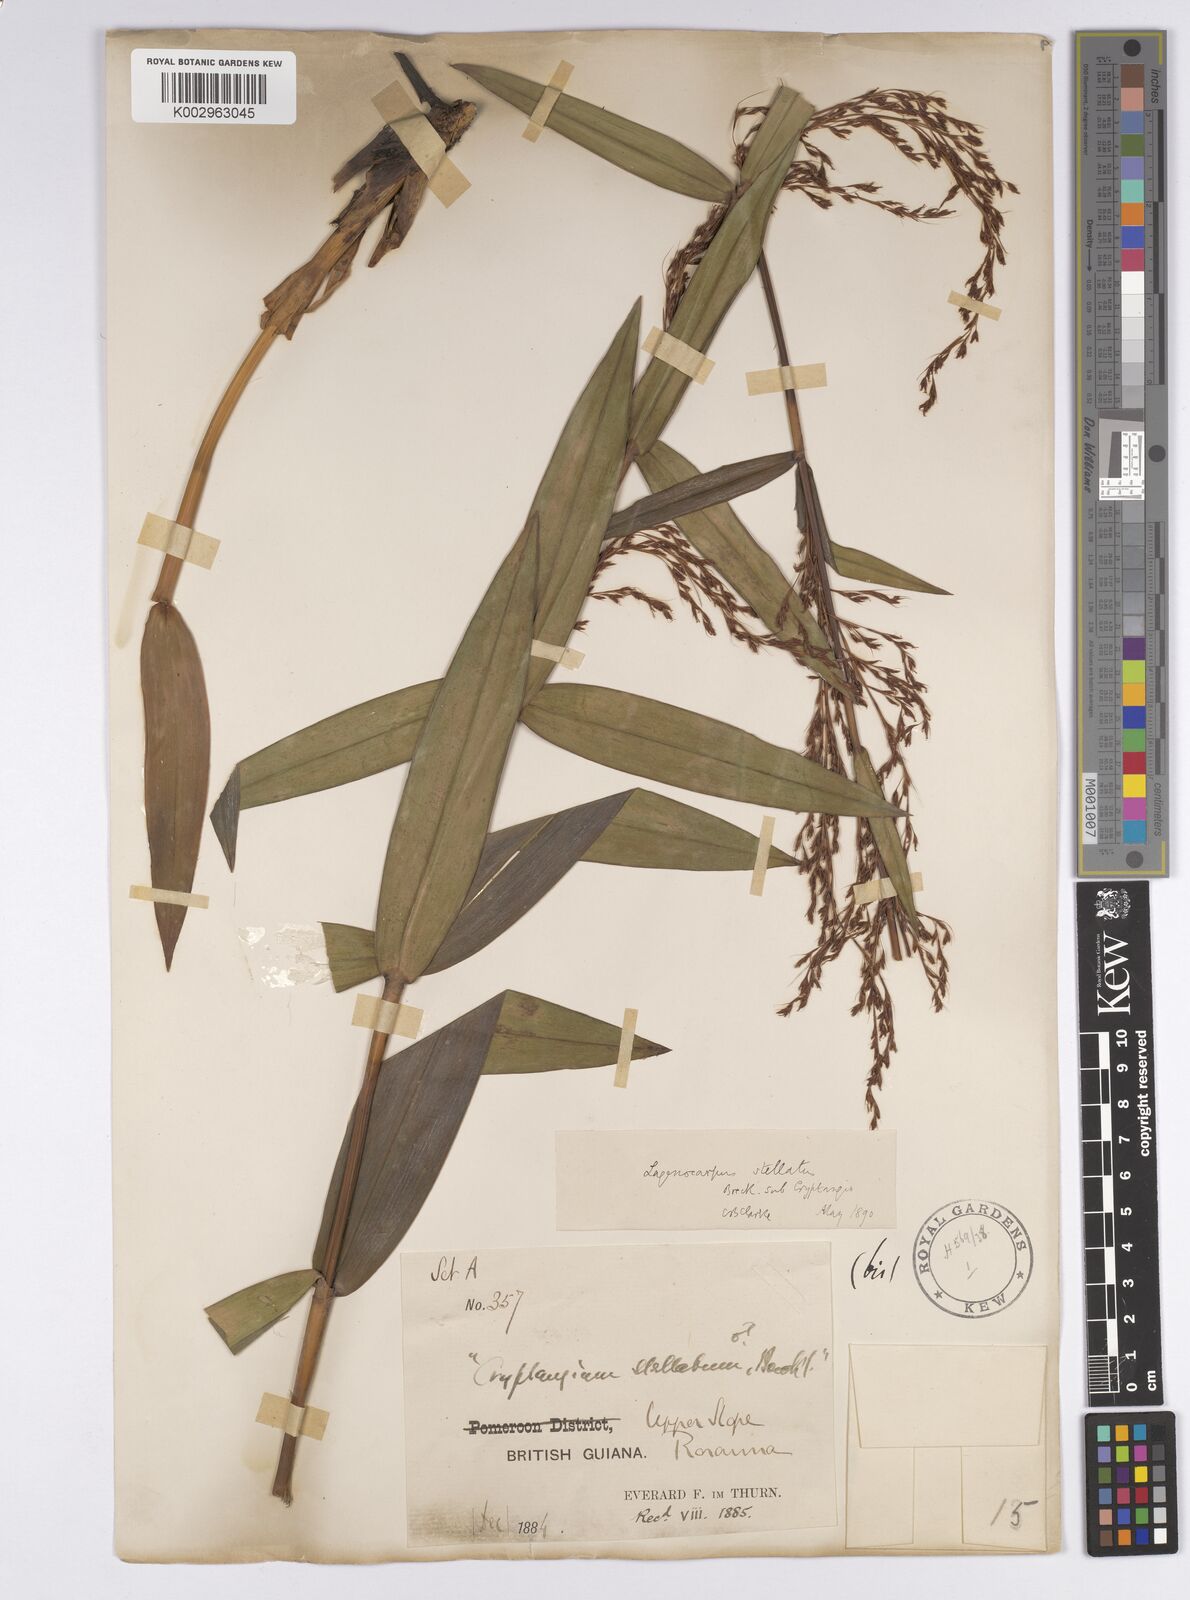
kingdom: Plantae
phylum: Tracheophyta
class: Liliopsida
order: Poales
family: Cyperaceae
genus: Didymiandrum
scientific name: Didymiandrum stellatum
